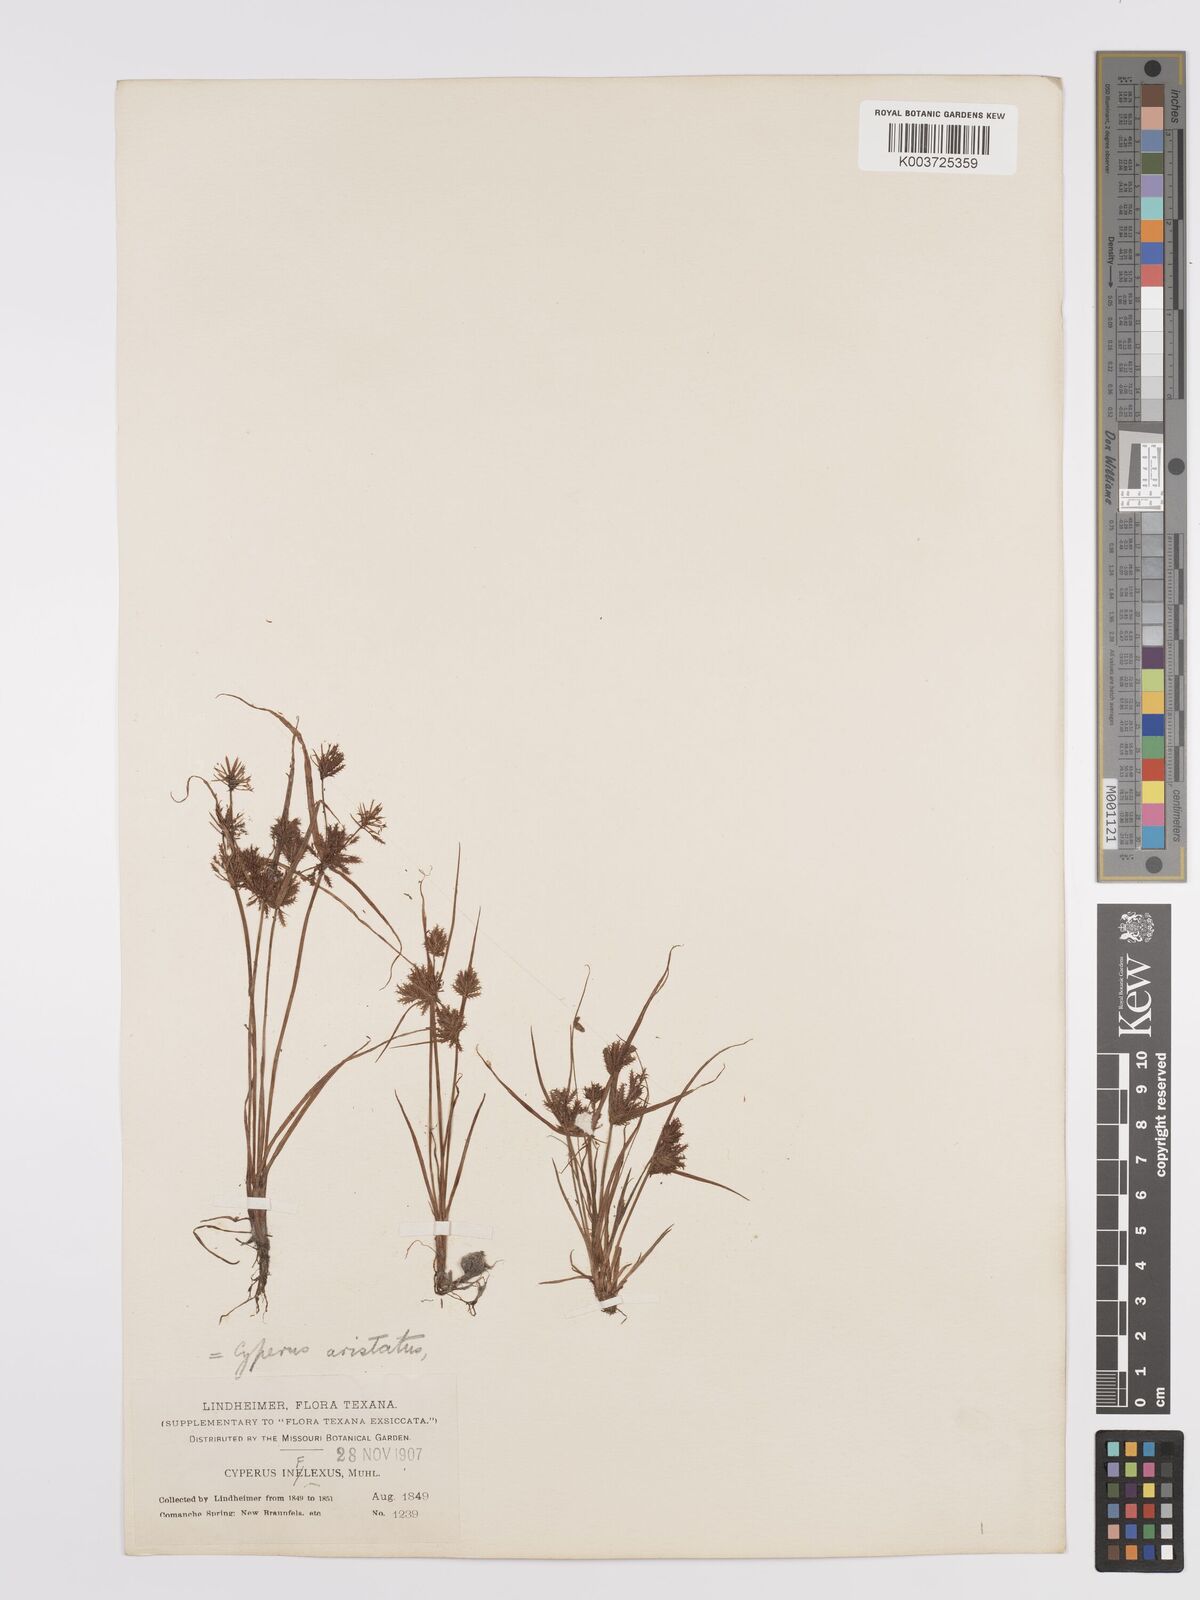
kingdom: Plantae
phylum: Tracheophyta
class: Liliopsida
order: Poales
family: Cyperaceae
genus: Cyperus
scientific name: Cyperus squarrosus
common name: Awned cyperus
